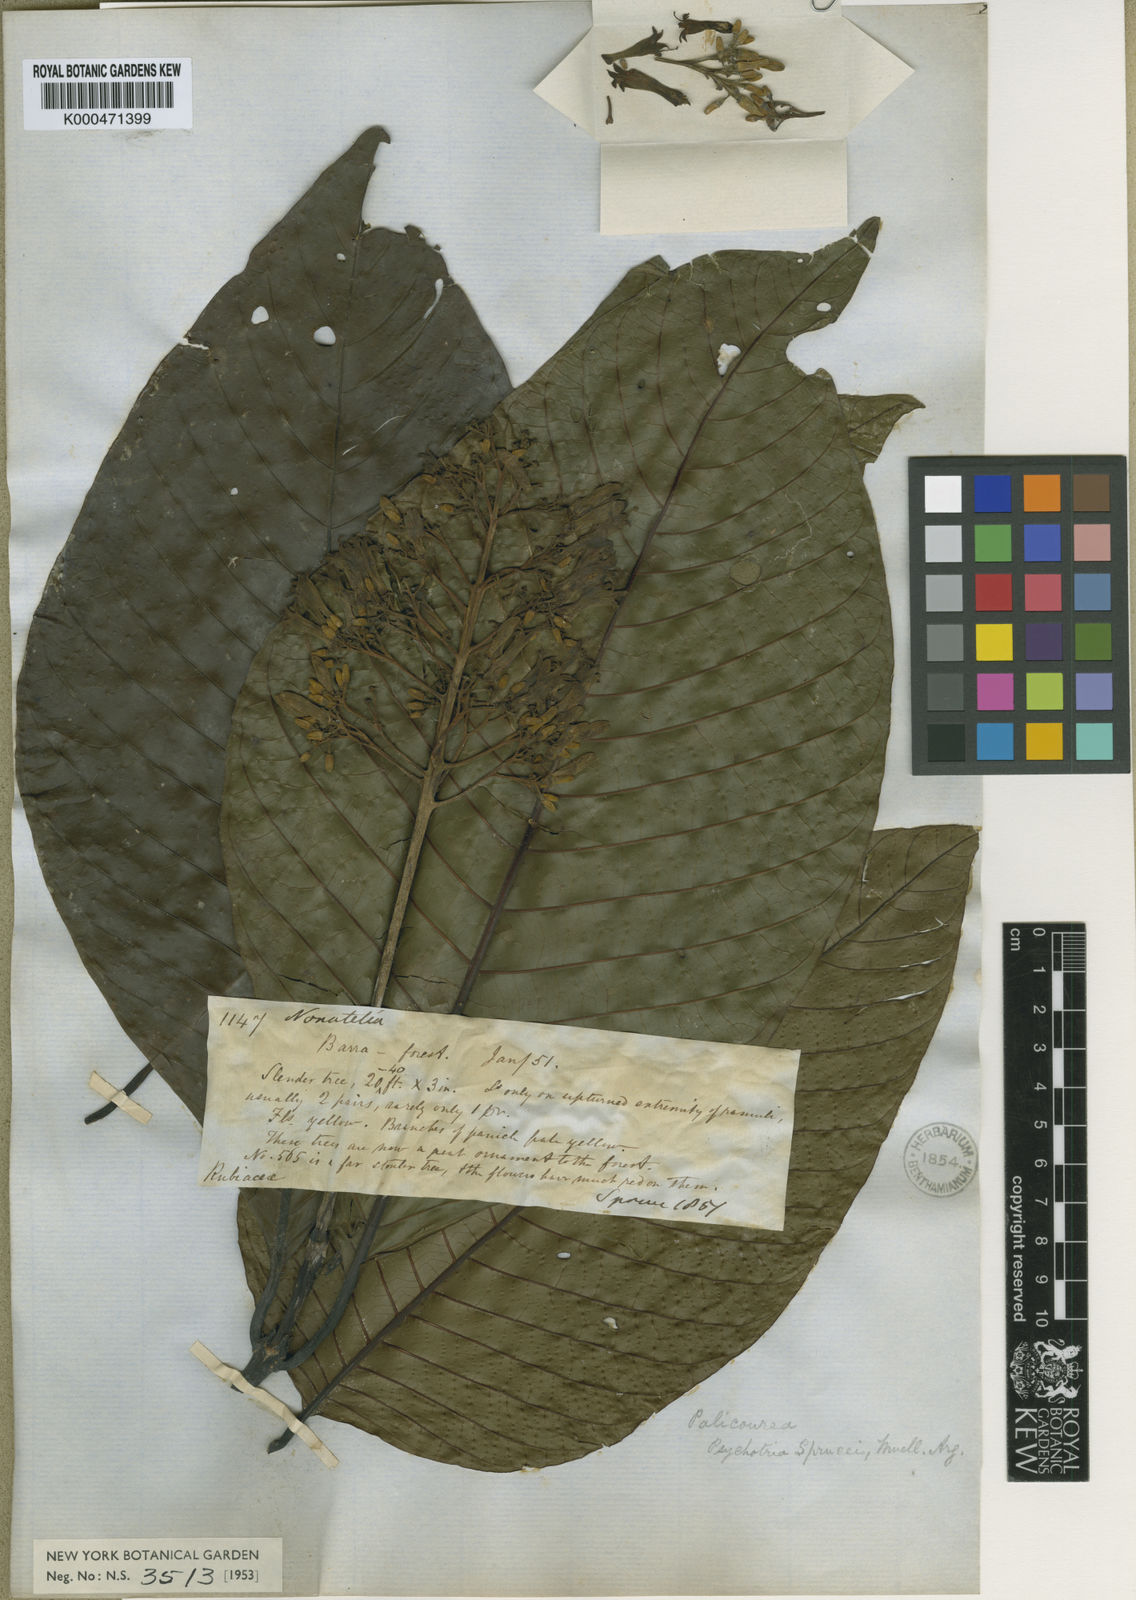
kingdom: Plantae
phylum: Tracheophyta
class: Magnoliopsida
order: Gentianales
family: Rubiaceae
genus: Palicourea
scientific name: Palicourea
